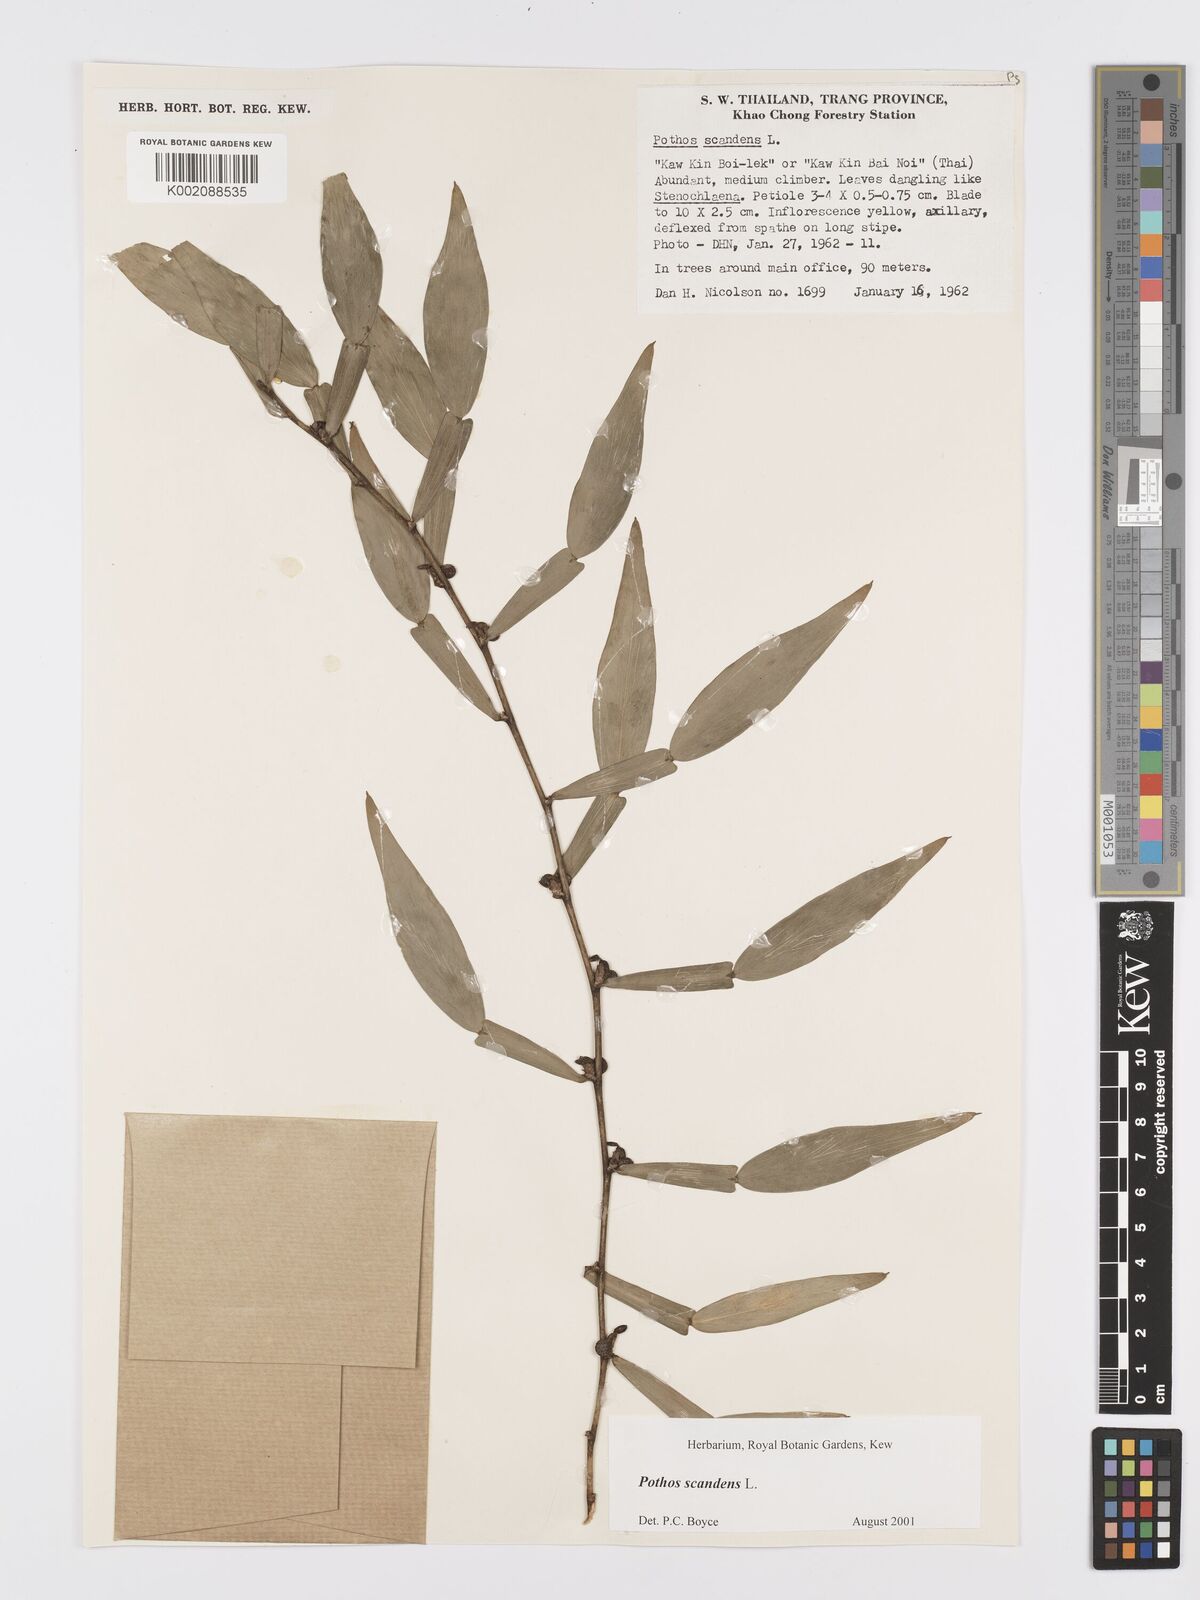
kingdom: Plantae
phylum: Tracheophyta
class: Liliopsida
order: Alismatales
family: Araceae
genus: Pothos
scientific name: Pothos scandens
